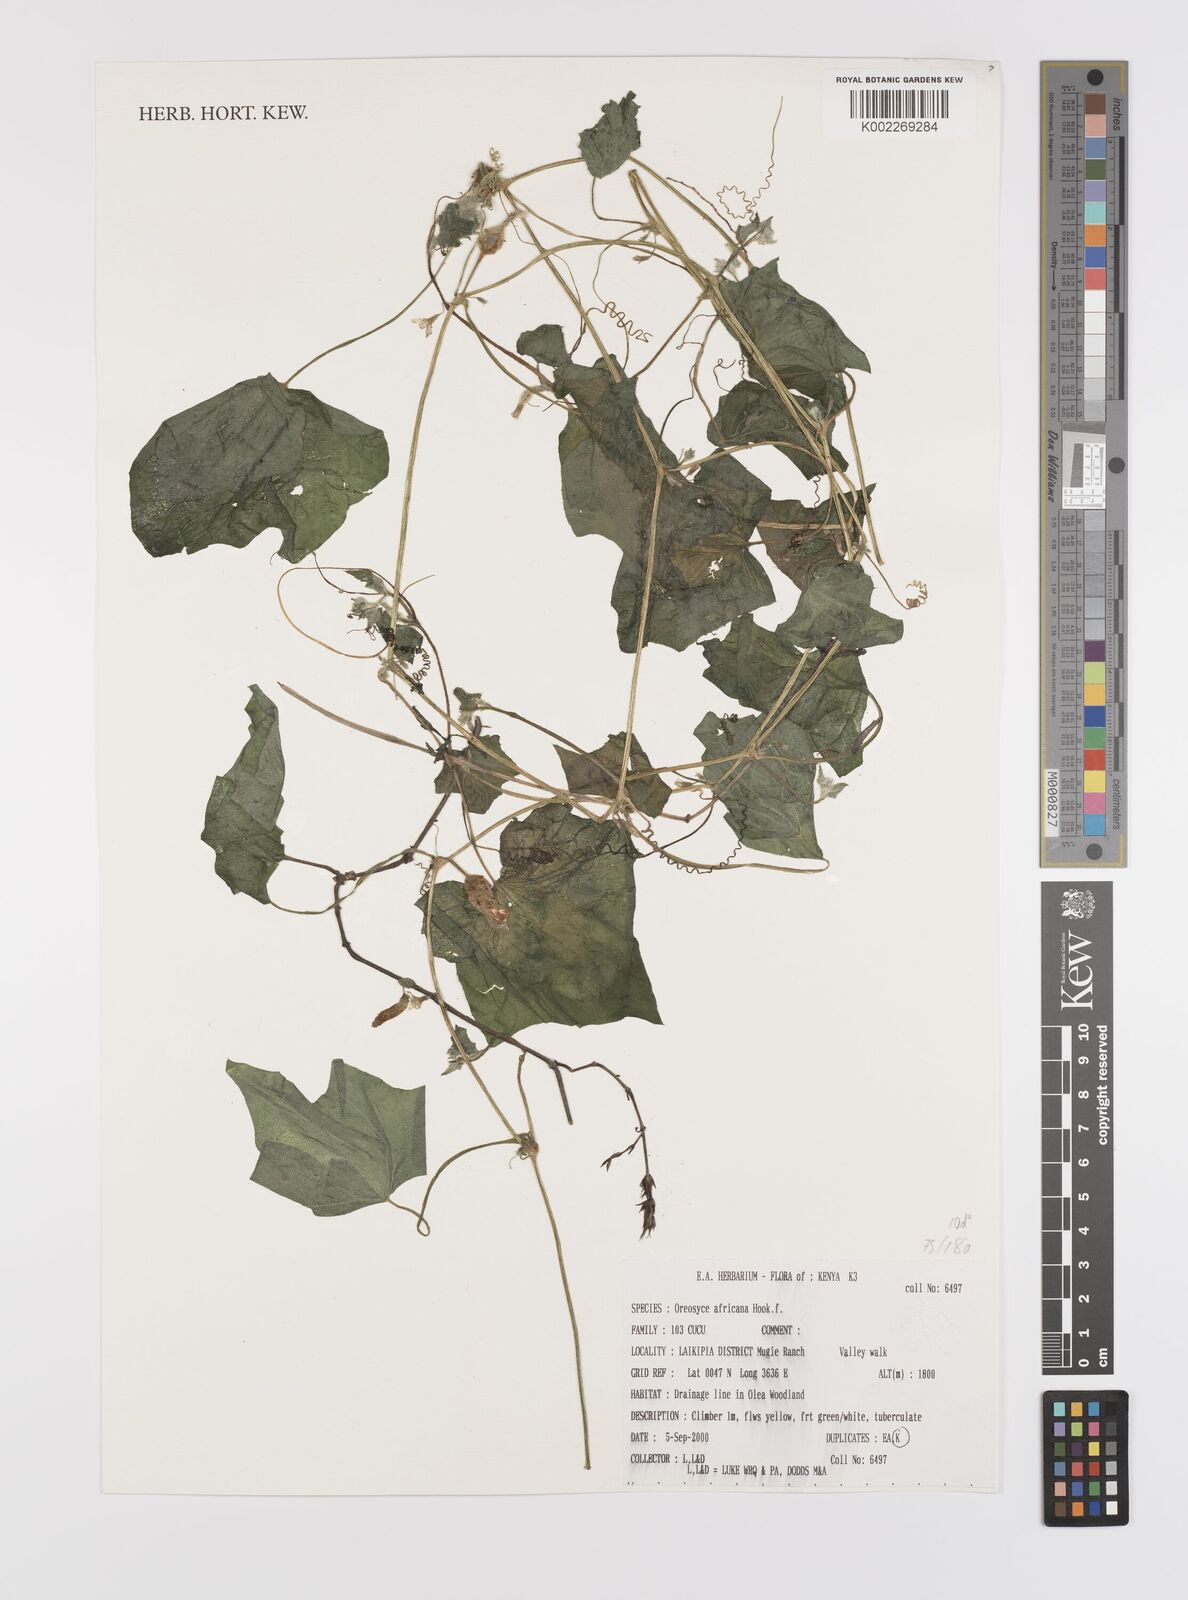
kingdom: Plantae
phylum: Tracheophyta
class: Magnoliopsida
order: Cucurbitales
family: Cucurbitaceae
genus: Cucumis
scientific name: Cucumis oreosyce
